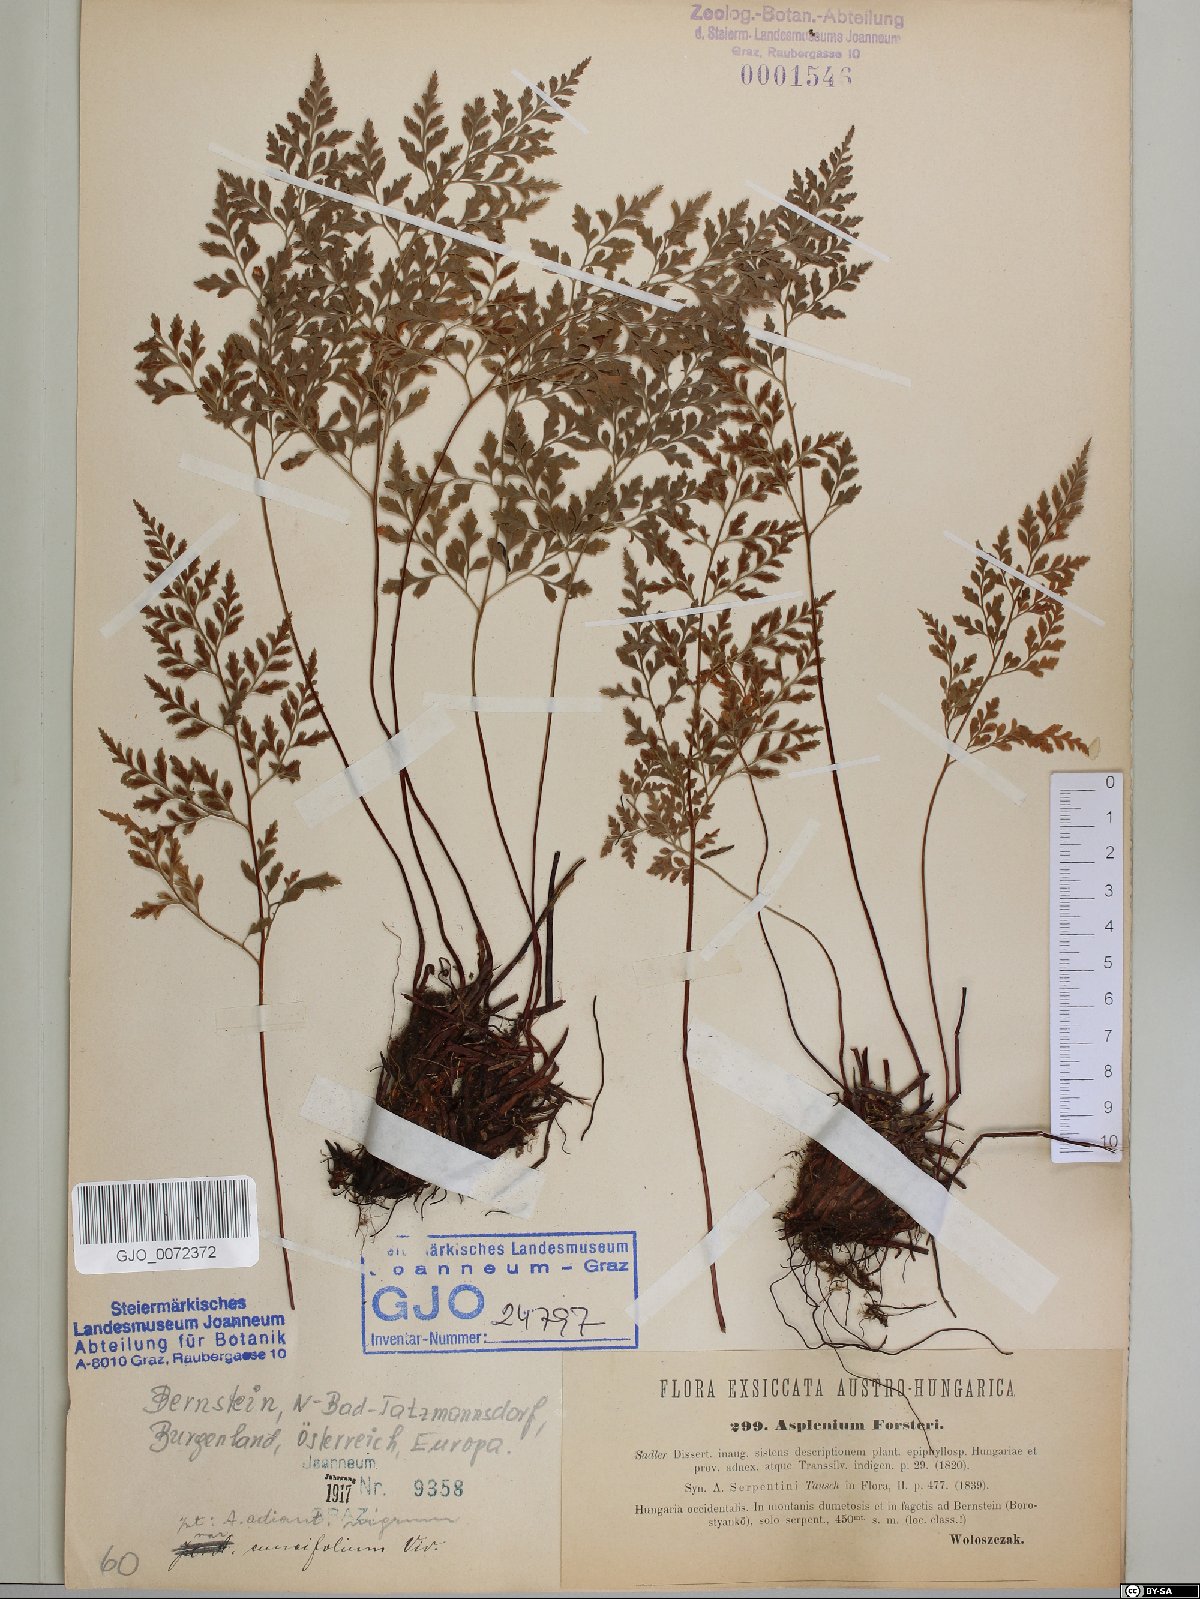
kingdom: Plantae
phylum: Tracheophyta
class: Polypodiopsida
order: Polypodiales
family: Aspleniaceae
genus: Asplenium
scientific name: Asplenium cuneifolium
